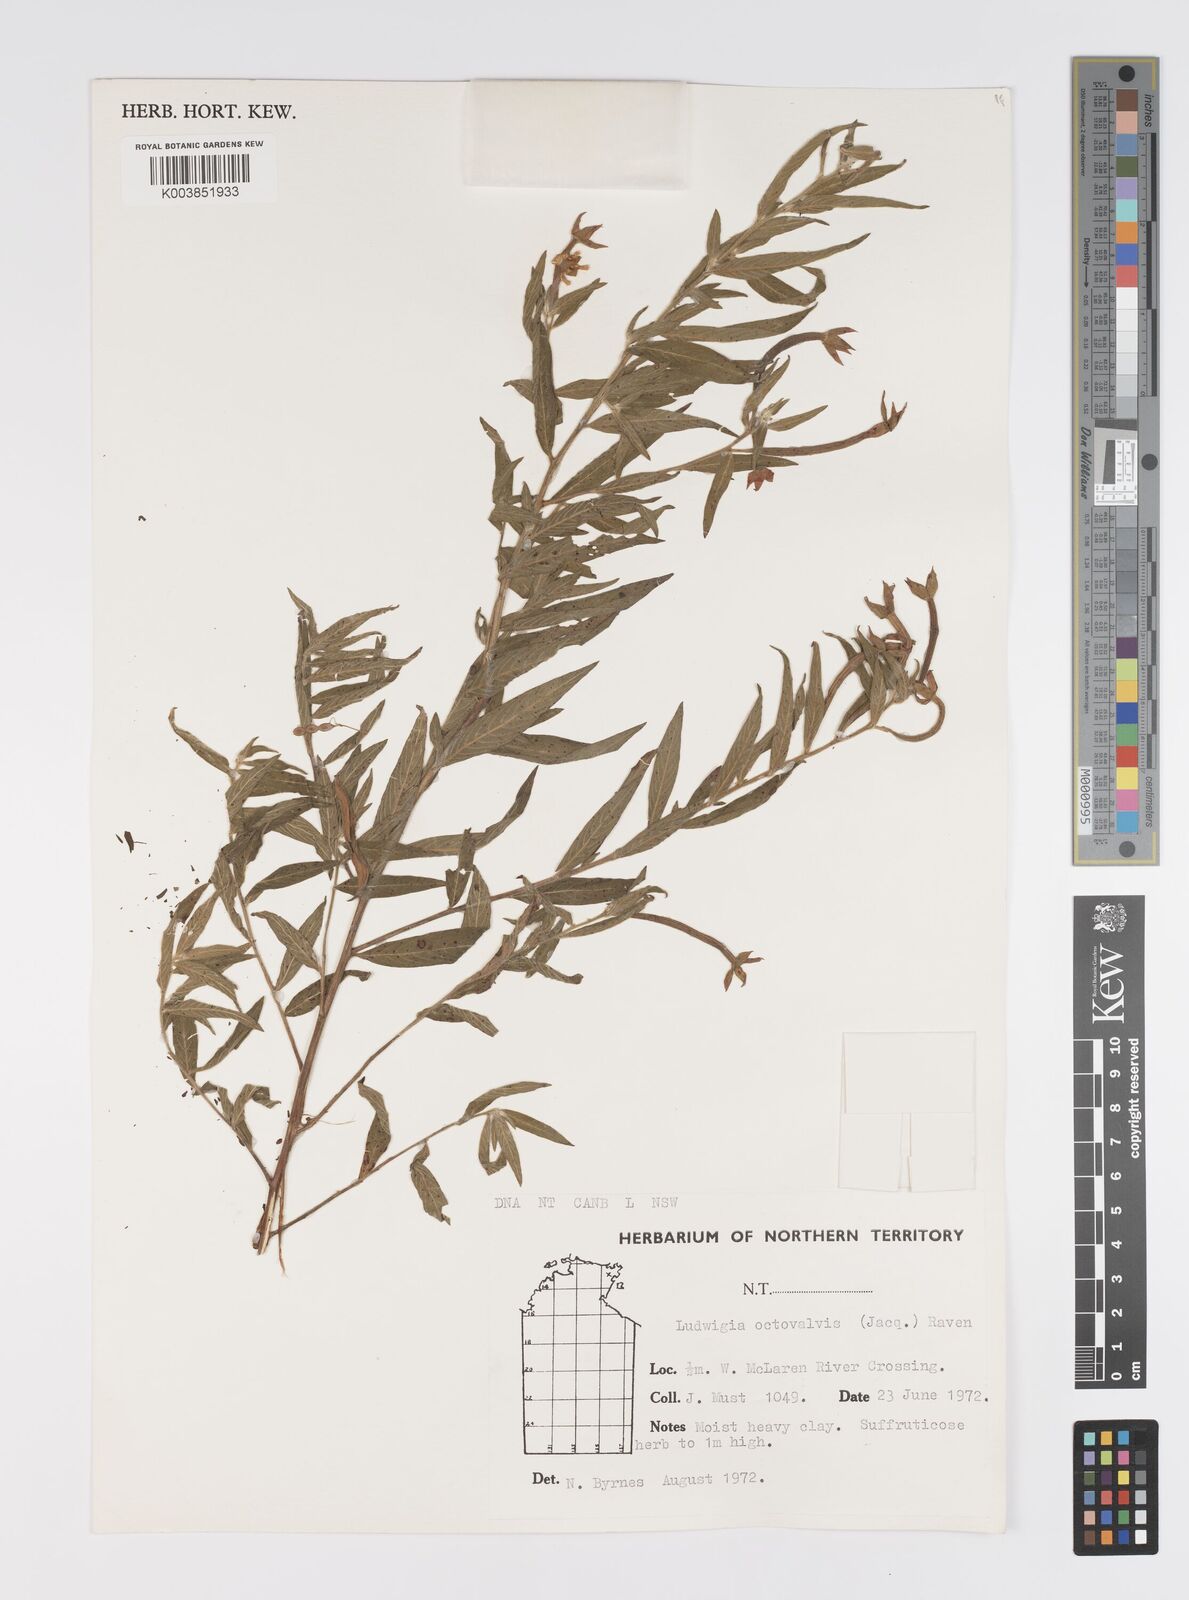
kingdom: Plantae
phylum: Tracheophyta
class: Magnoliopsida
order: Myrtales
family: Onagraceae
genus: Ludwigia
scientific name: Ludwigia octovalvis
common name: Water-primrose
